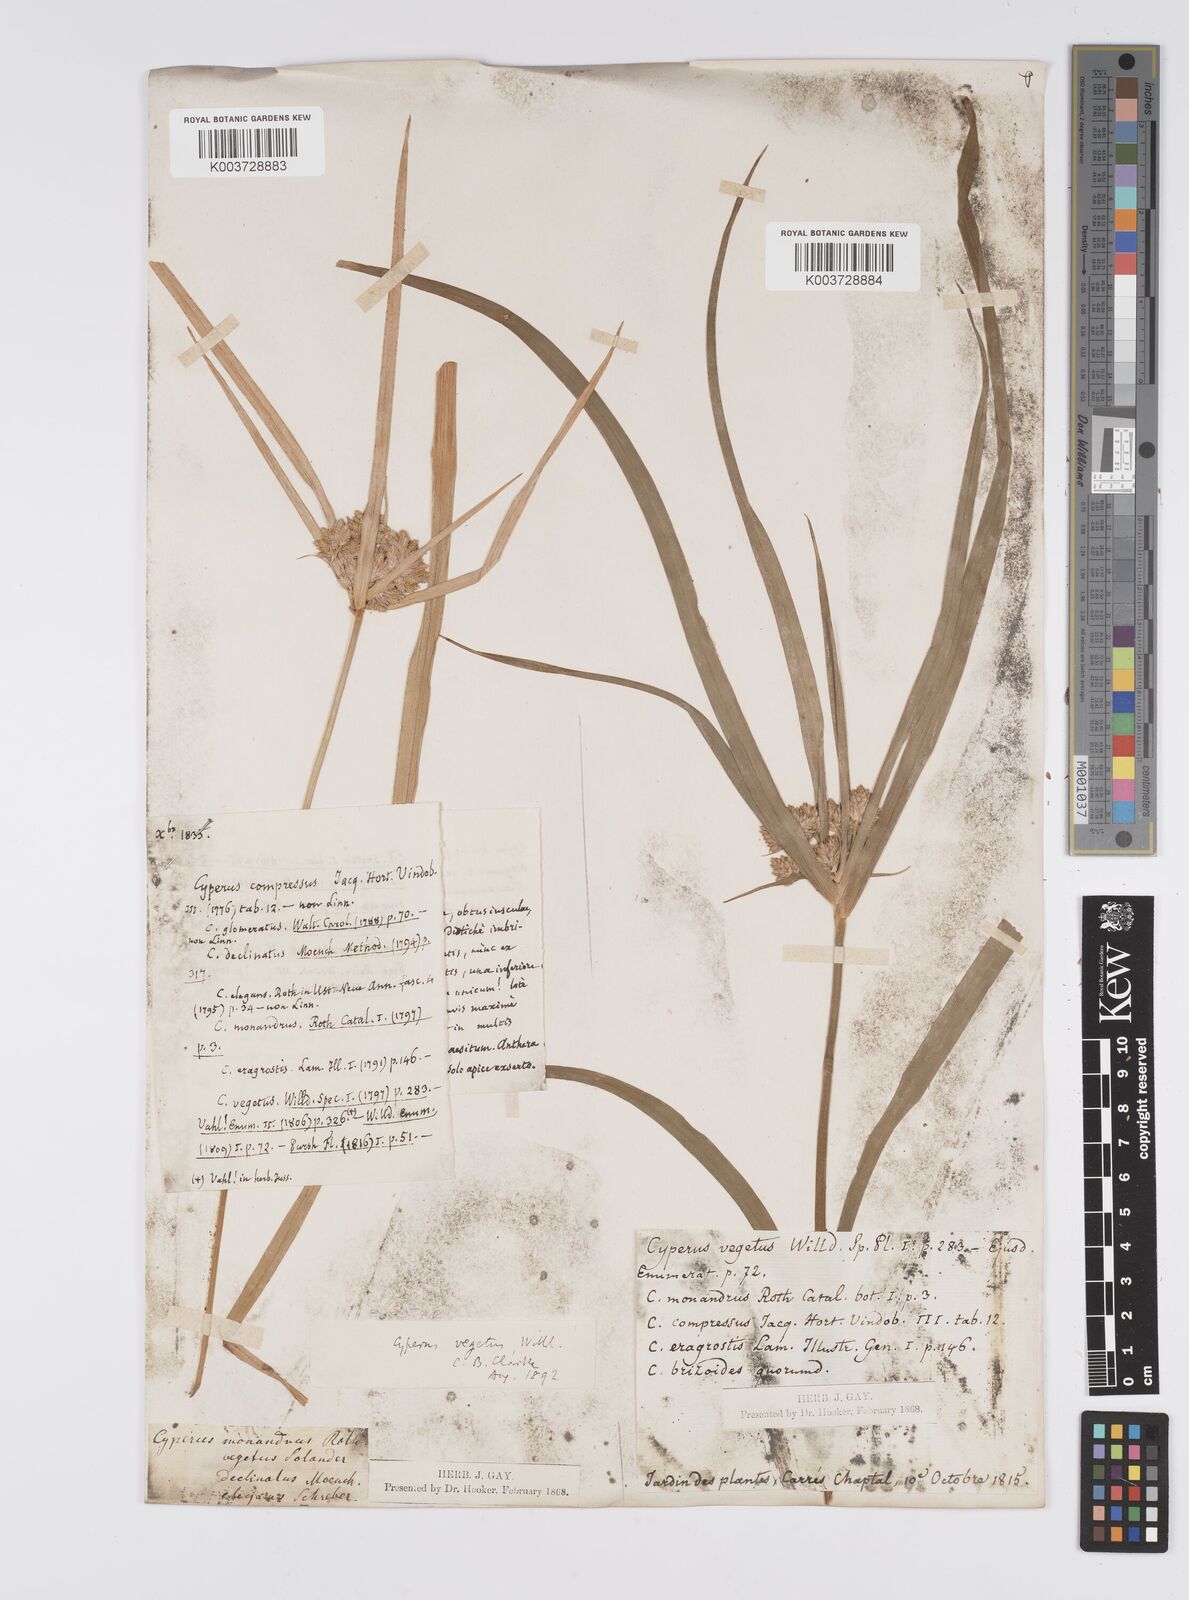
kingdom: Plantae
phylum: Tracheophyta
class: Liliopsida
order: Poales
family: Cyperaceae
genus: Cyperus
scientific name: Cyperus eragrostis
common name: Tall flatsedge
